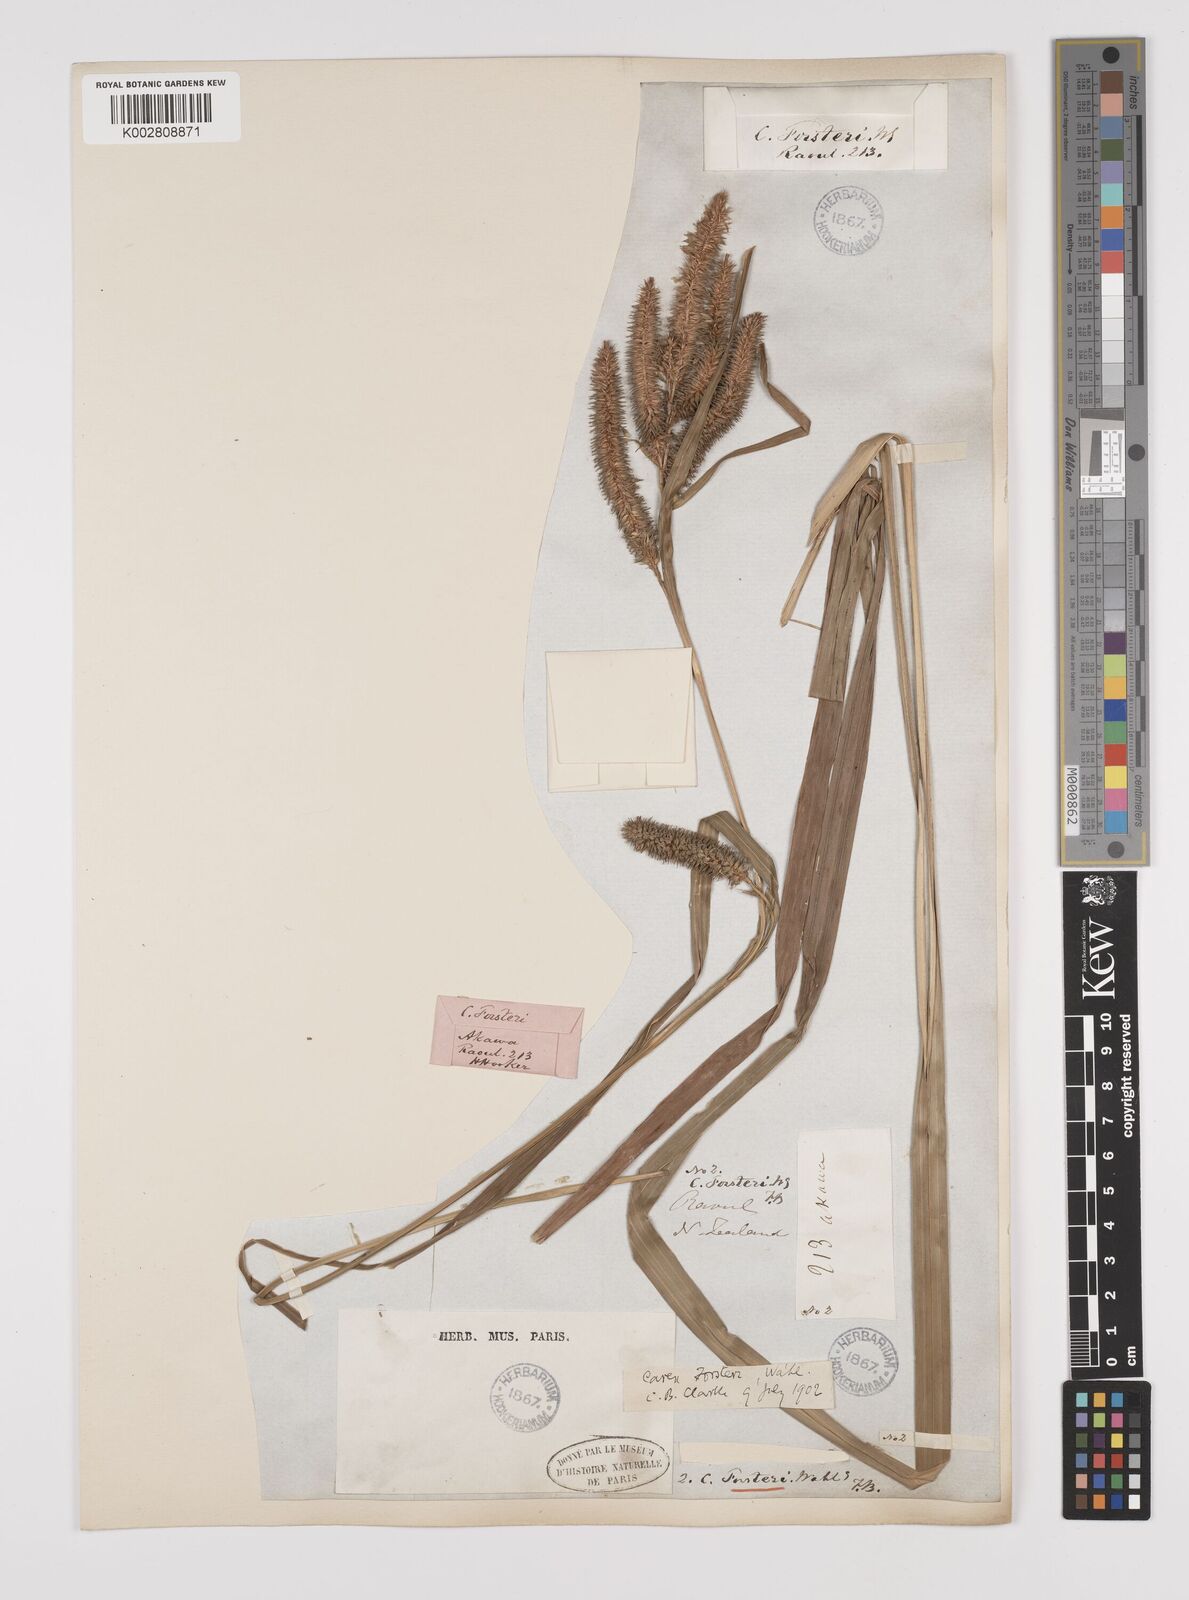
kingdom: Plantae
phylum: Tracheophyta
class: Liliopsida
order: Poales
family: Cyperaceae
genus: Carex
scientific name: Carex forsteri
